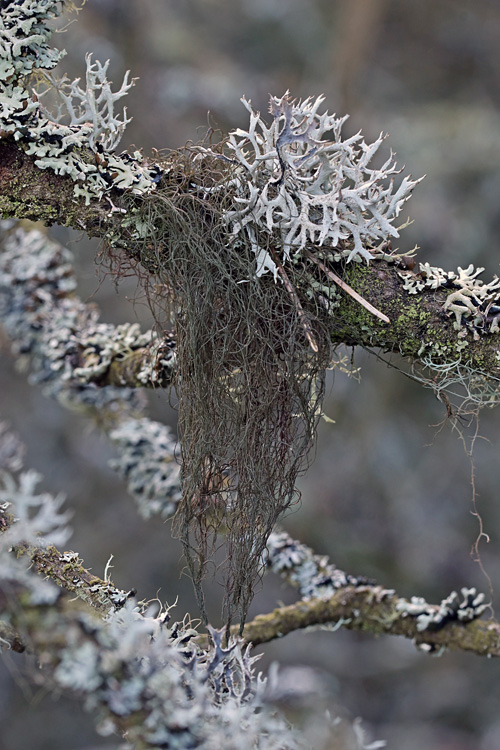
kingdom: Fungi
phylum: Ascomycota
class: Lecanoromycetes
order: Lecanorales
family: Parmeliaceae
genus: Bryoria
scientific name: Bryoria fuscescens
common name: almindelig mankelav
